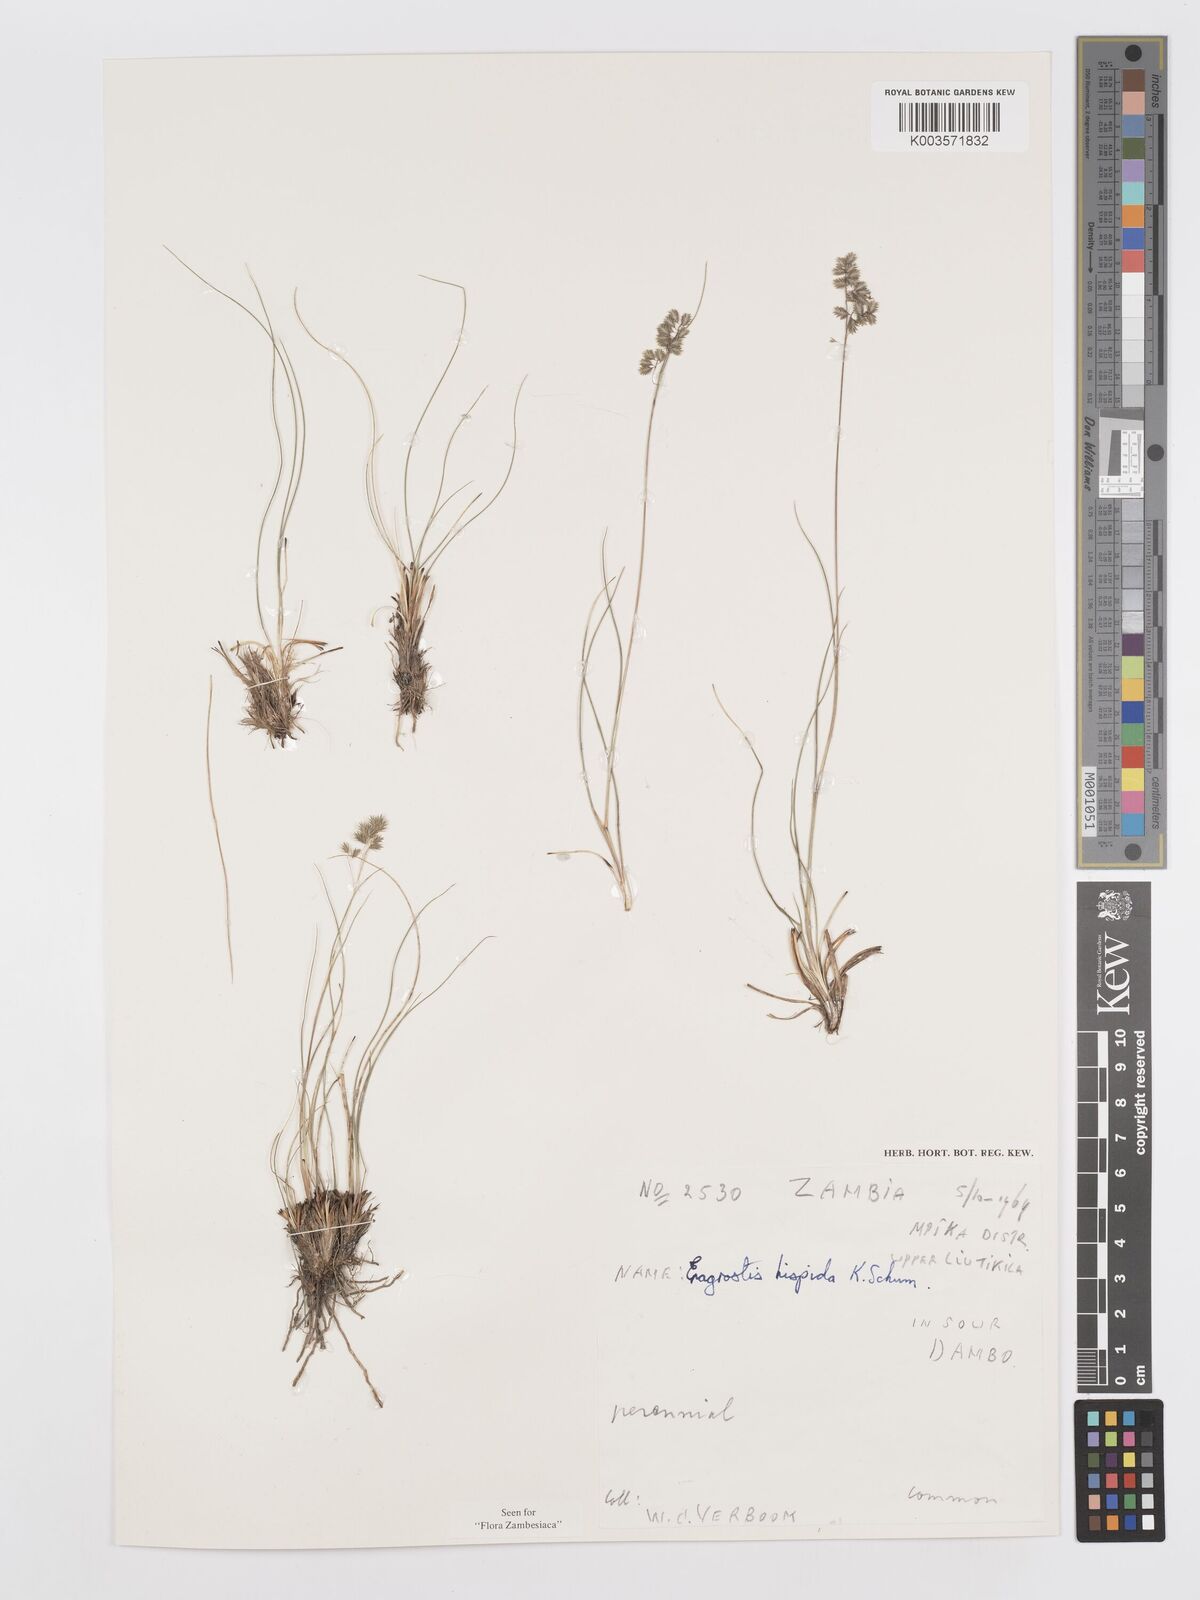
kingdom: Plantae
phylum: Tracheophyta
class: Liliopsida
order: Poales
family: Poaceae
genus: Eragrostis
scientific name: Eragrostis hispida
